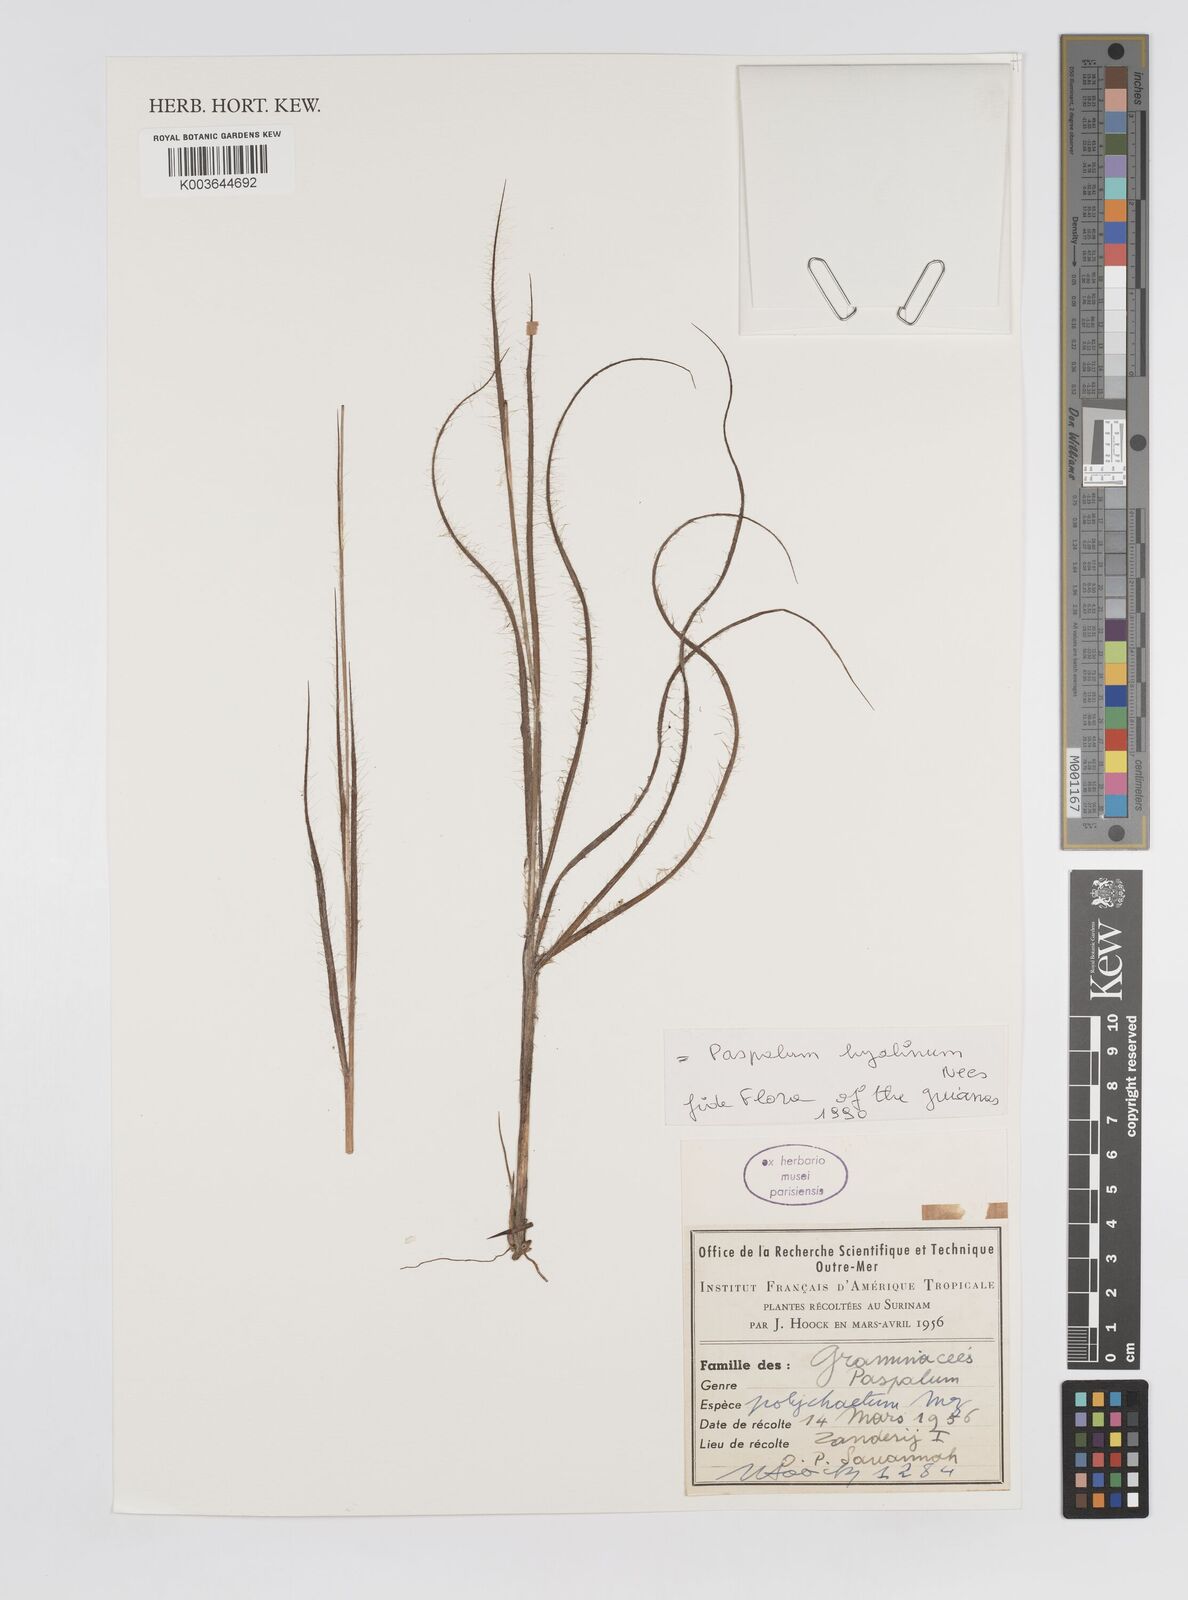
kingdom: Plantae
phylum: Tracheophyta
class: Liliopsida
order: Poales
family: Poaceae
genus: Paspalum
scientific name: Paspalum hyalinum
